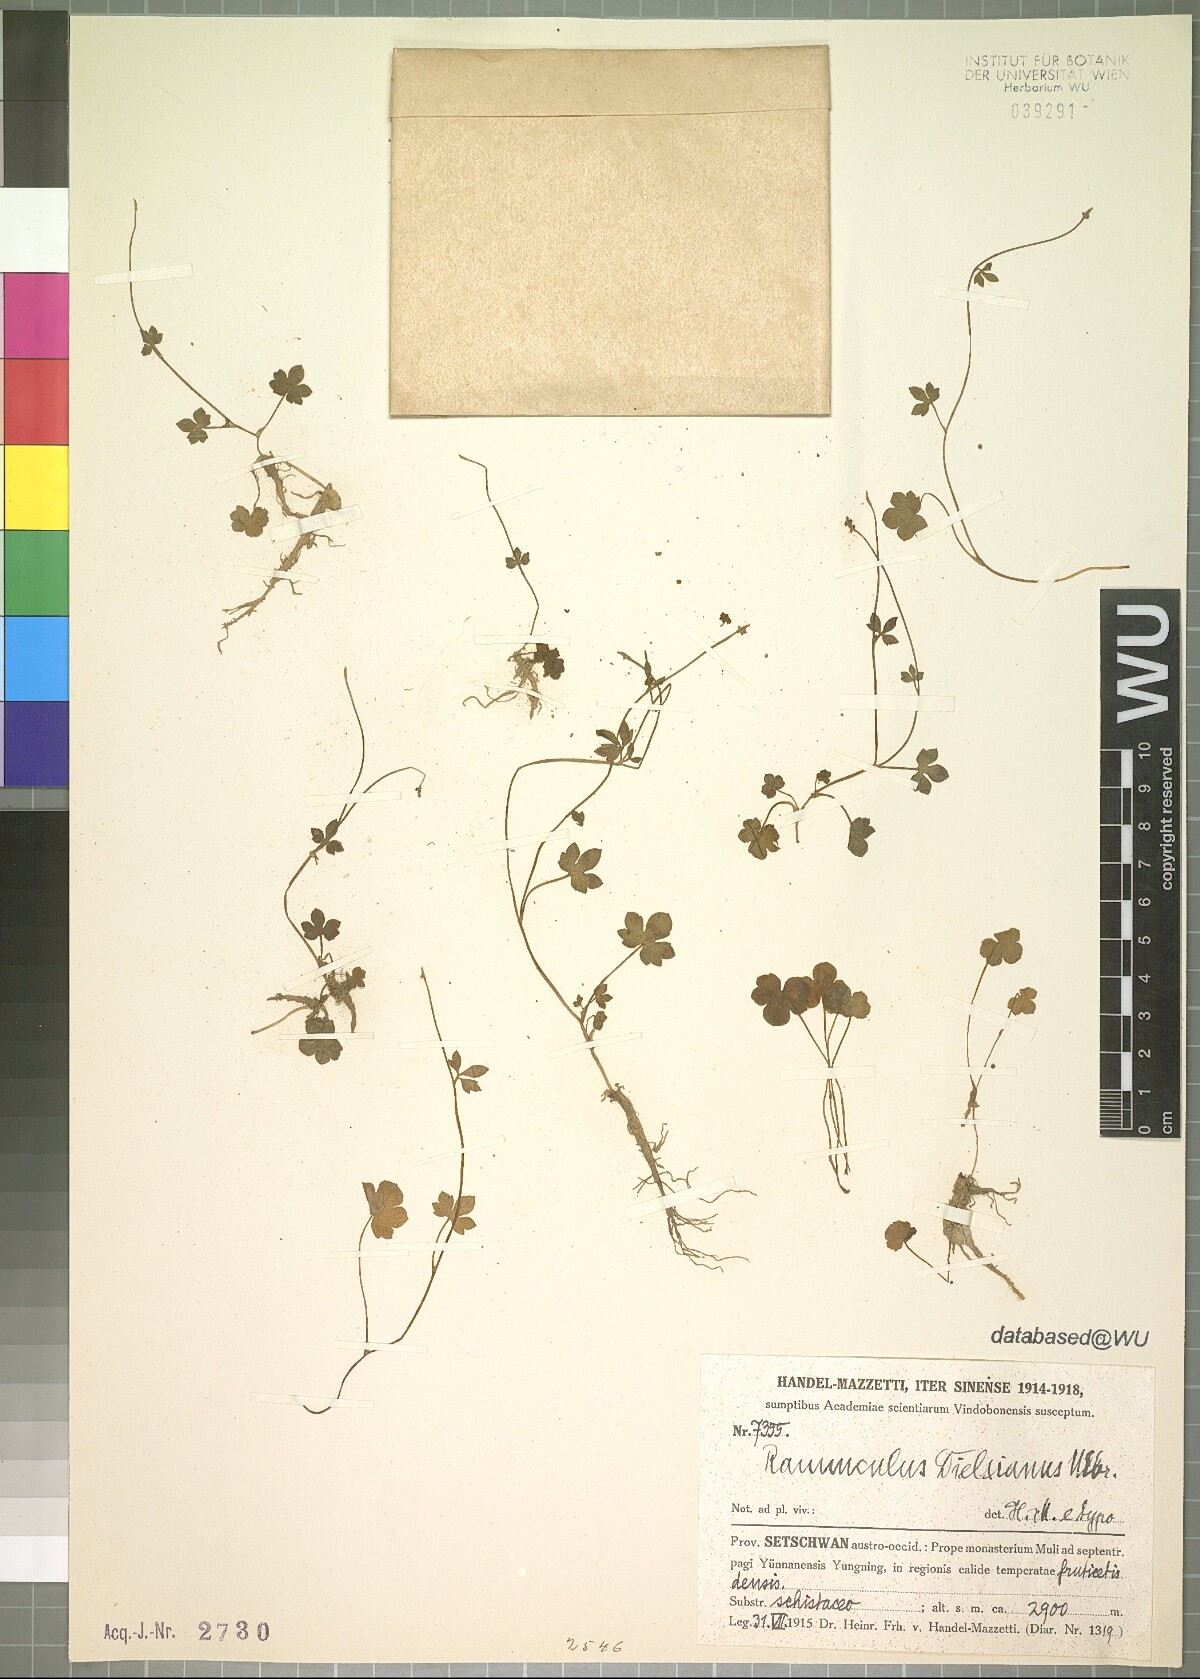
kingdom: Plantae
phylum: Tracheophyta
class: Magnoliopsida
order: Ranunculales
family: Ranunculaceae
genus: Ranunculus
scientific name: Ranunculus dielsianus
